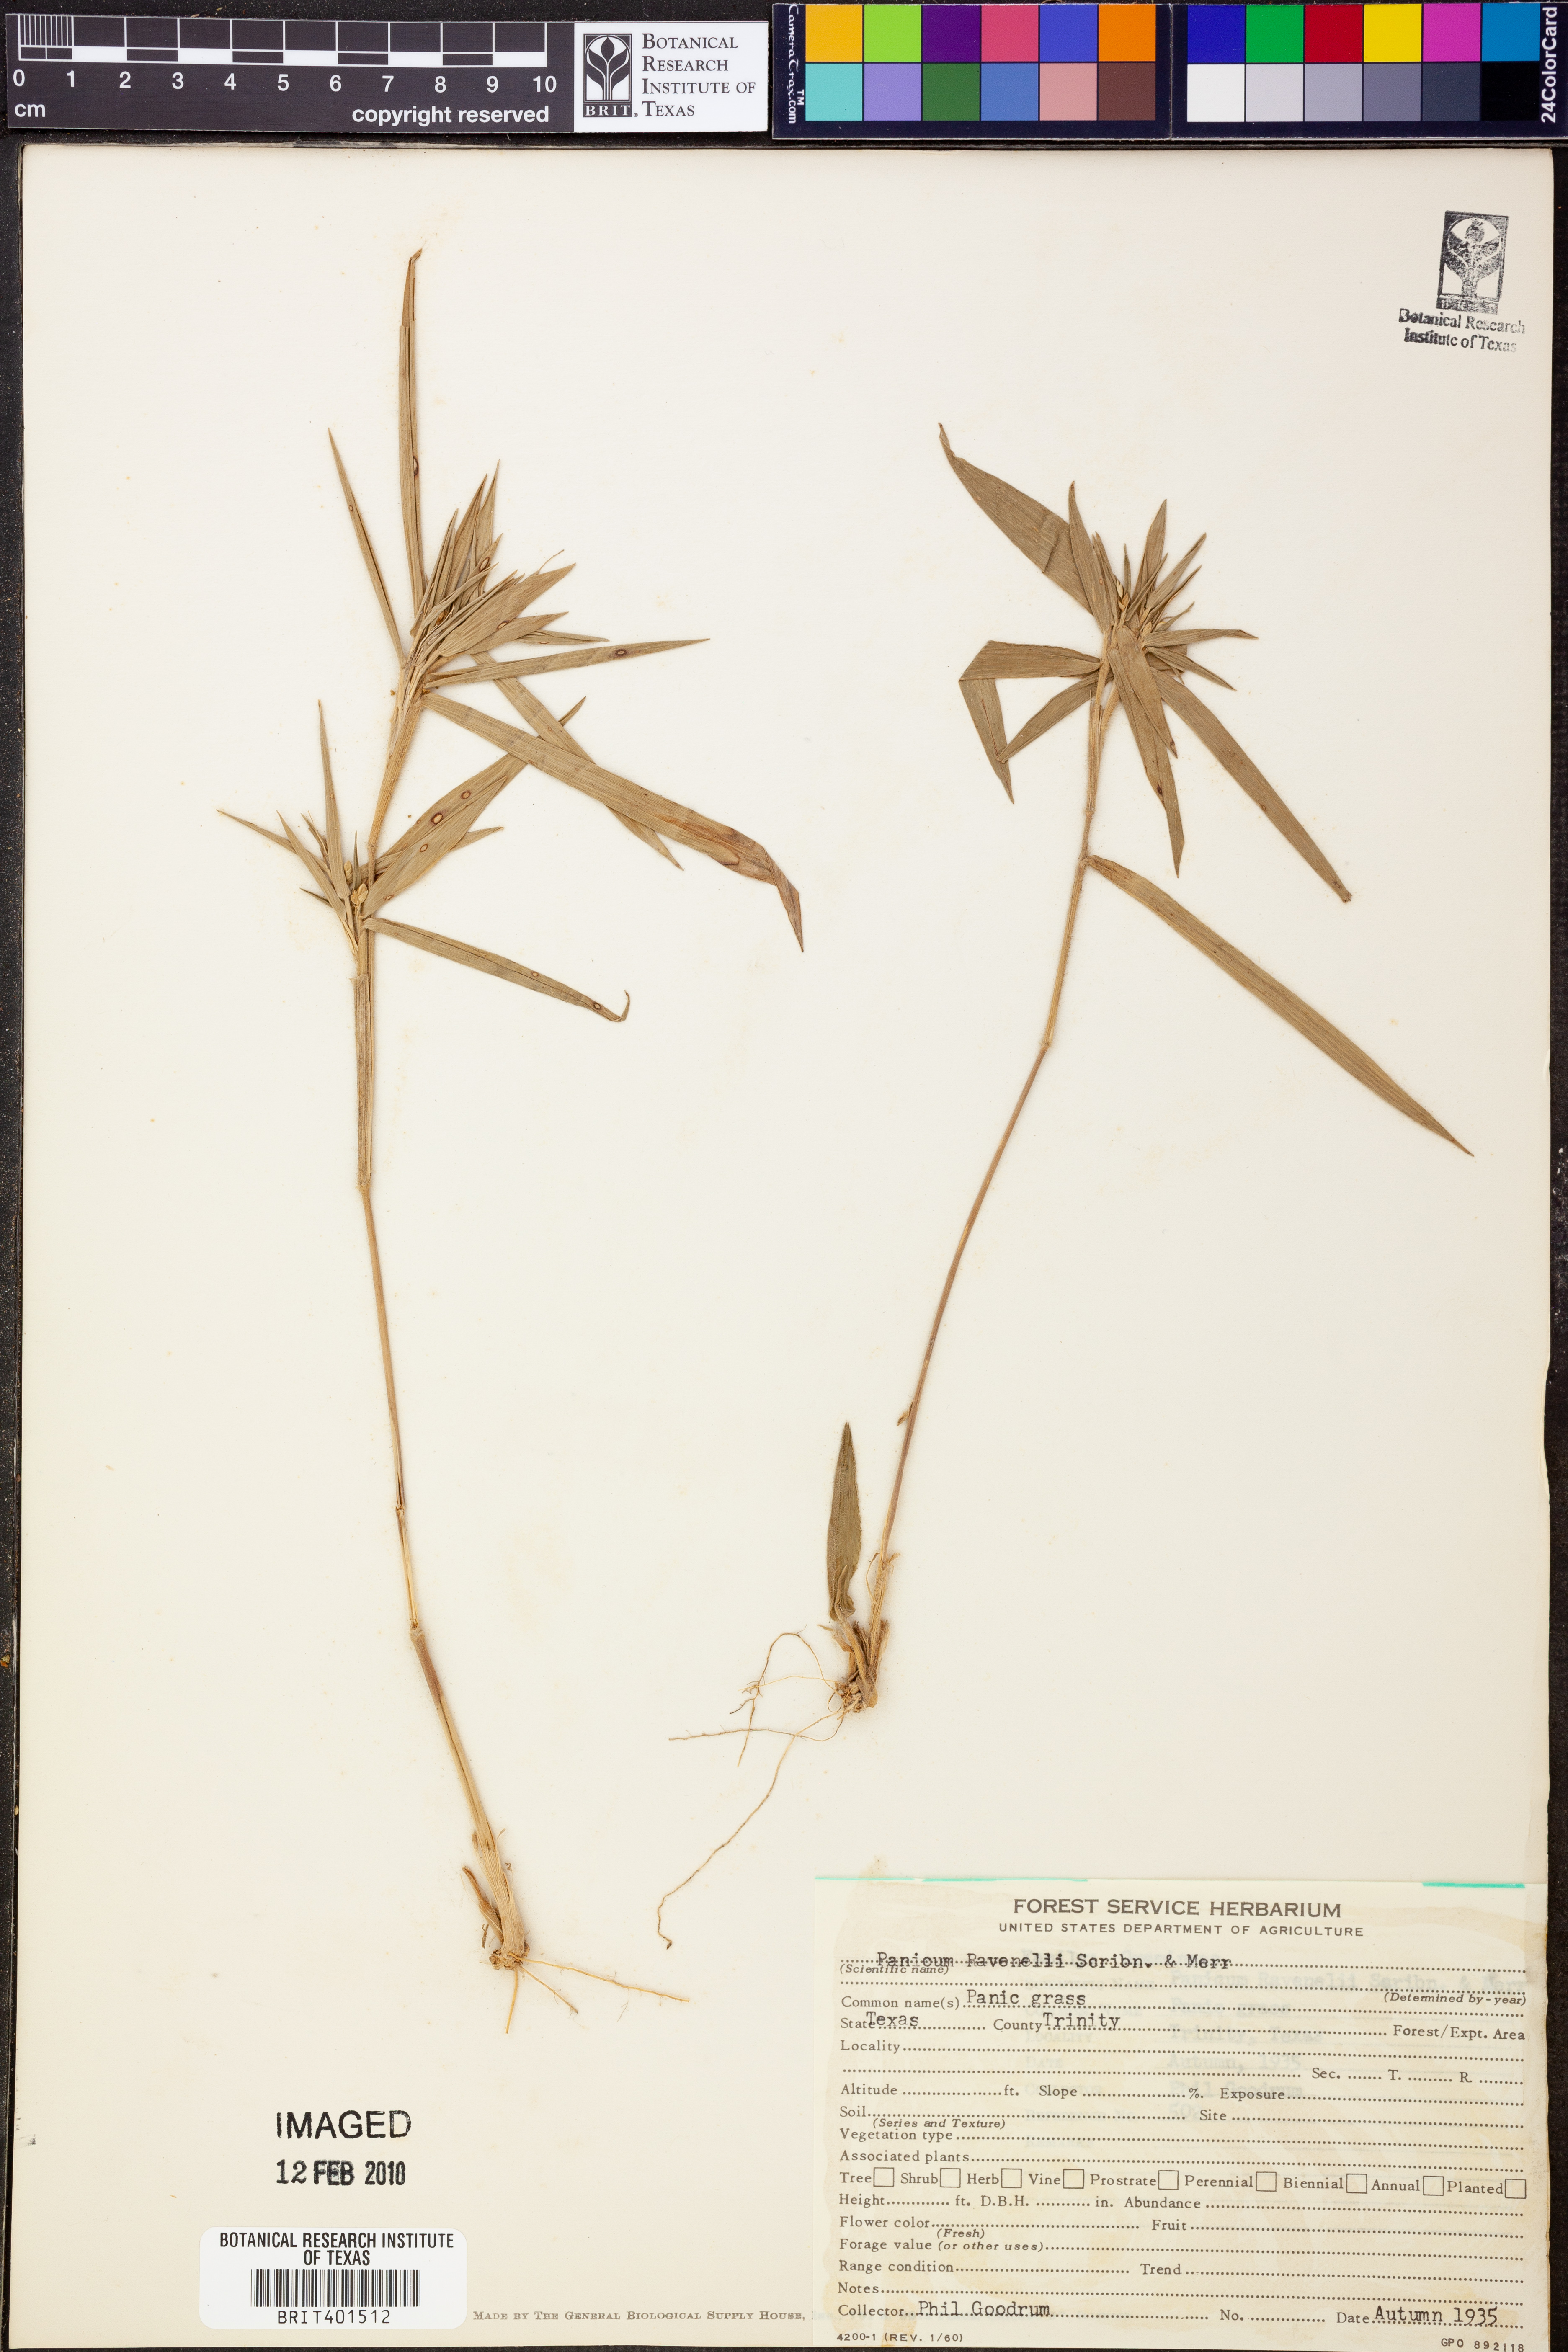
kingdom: Plantae
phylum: Tracheophyta
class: Liliopsida
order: Poales
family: Poaceae
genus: Dichanthelium
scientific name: Dichanthelium ravenelii
